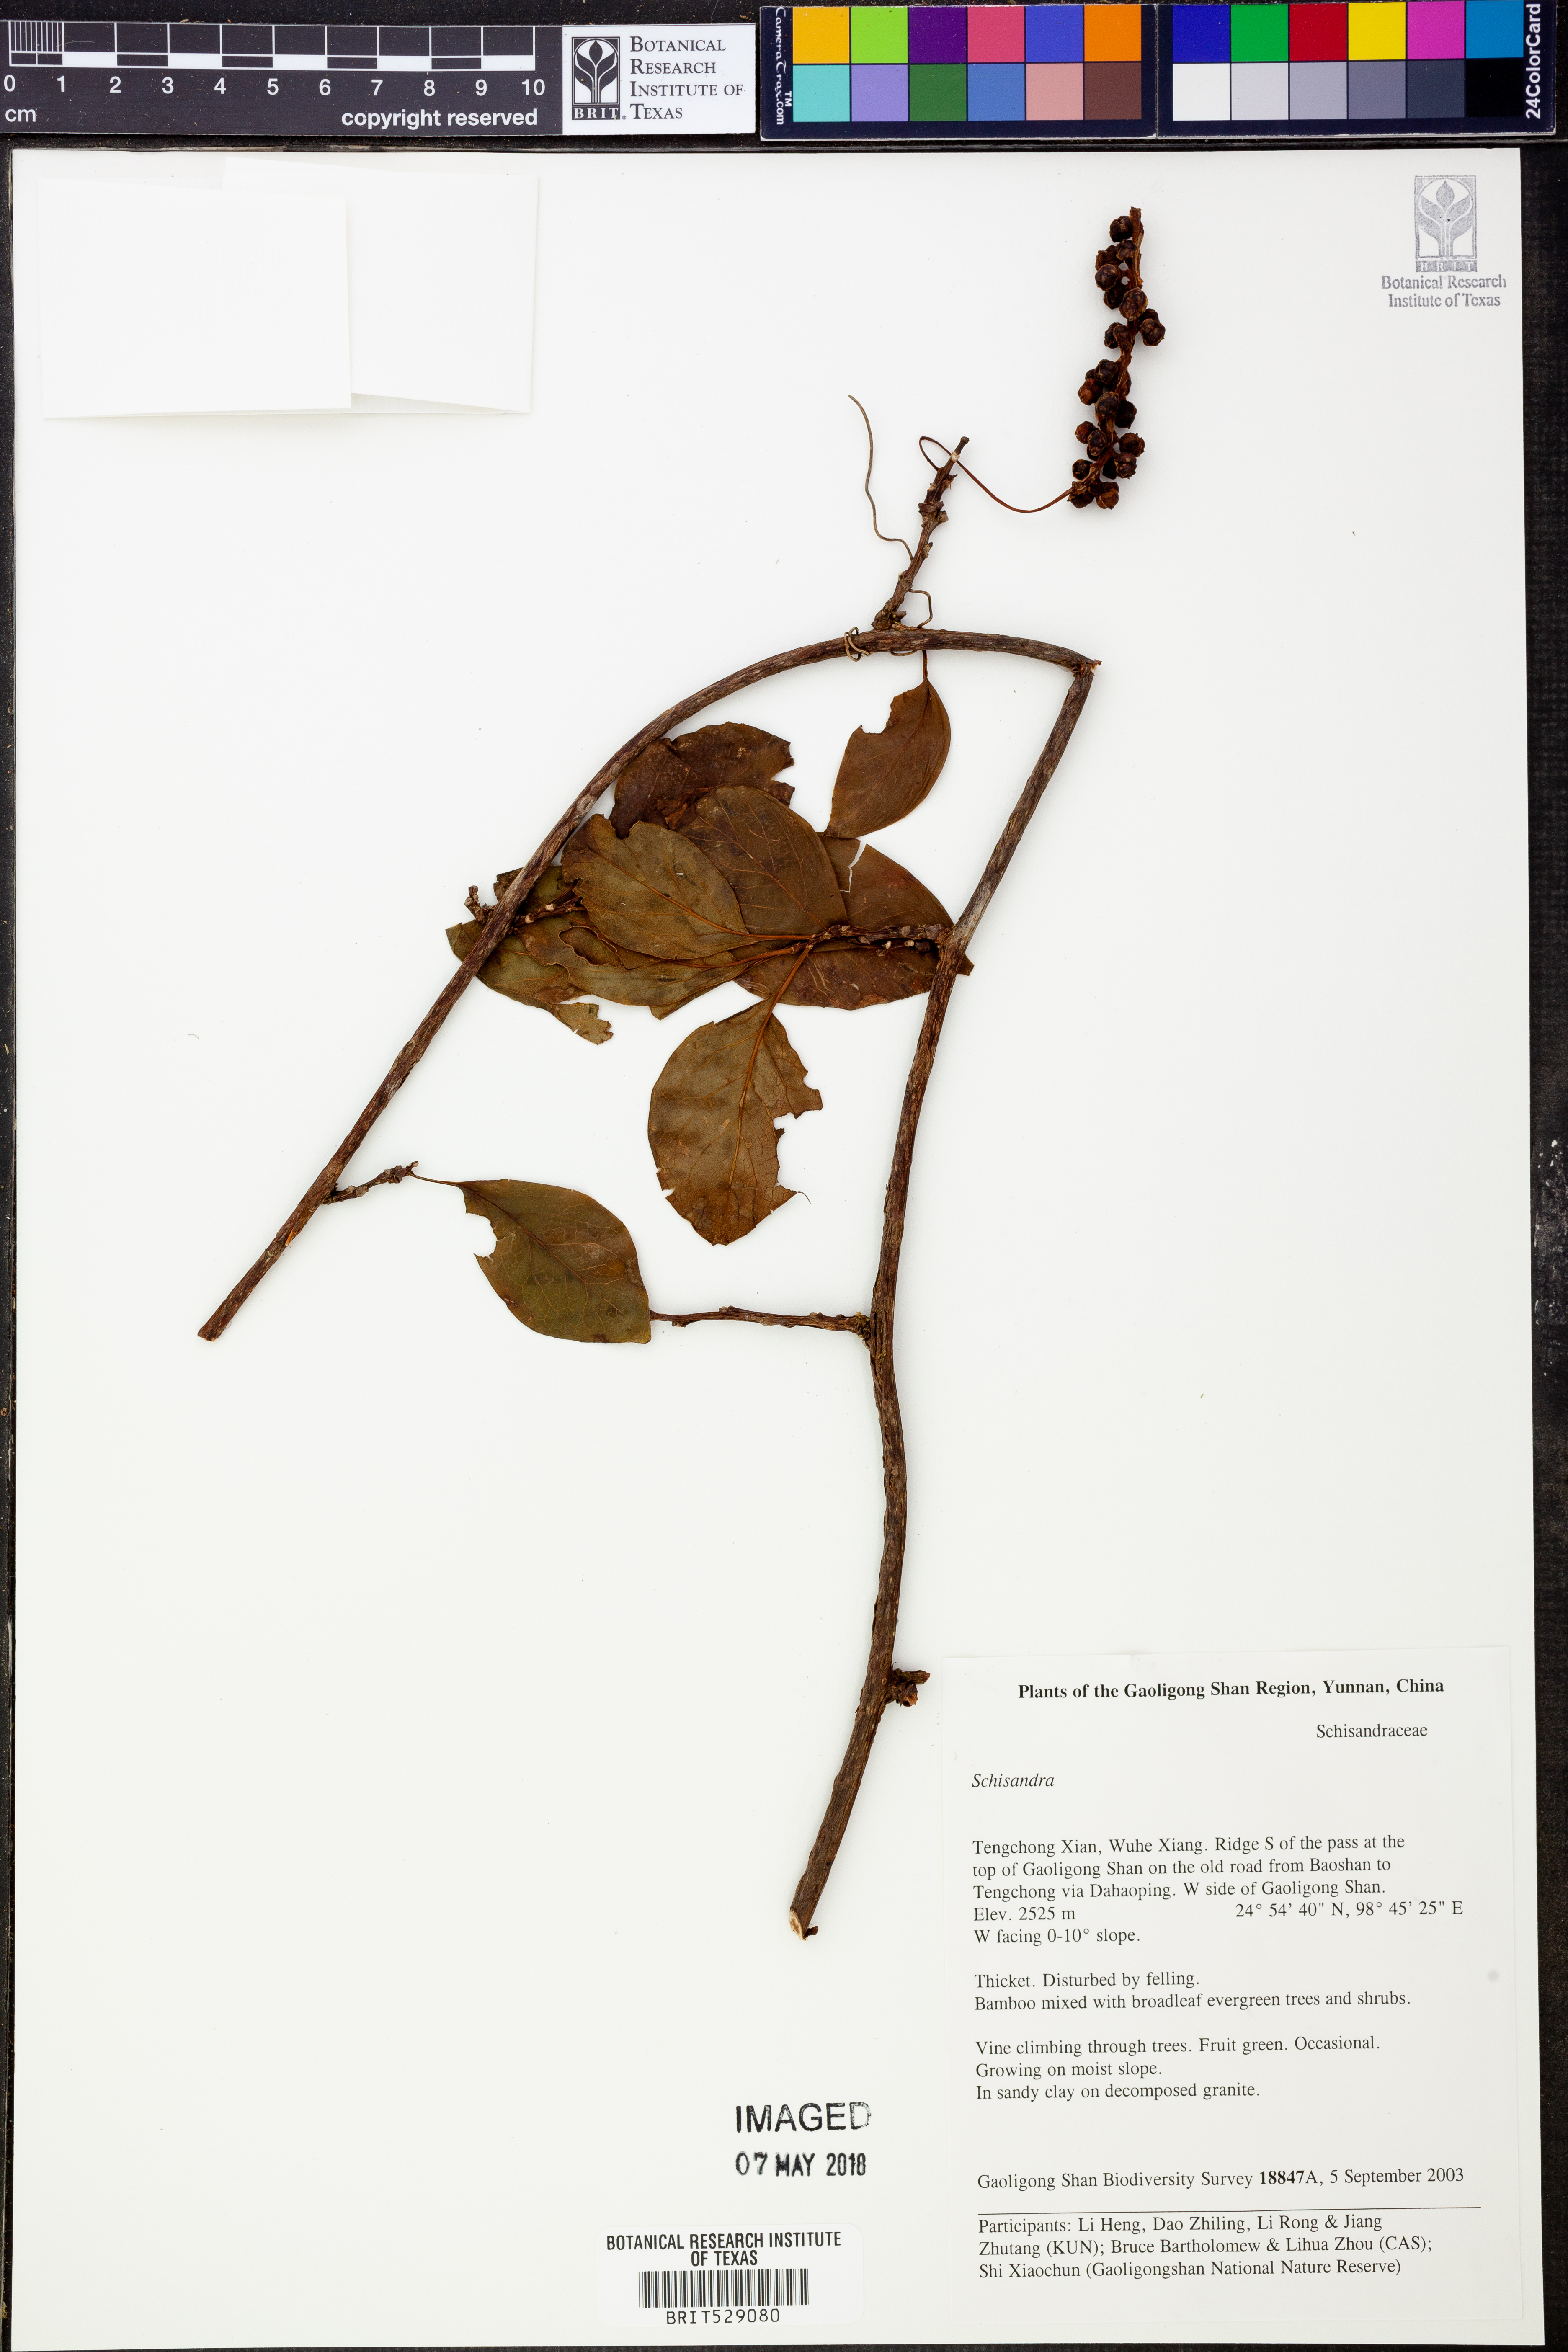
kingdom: Plantae
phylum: Tracheophyta
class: Magnoliopsida
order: Austrobaileyales
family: Schisandraceae
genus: Schisandra
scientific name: Schisandra
